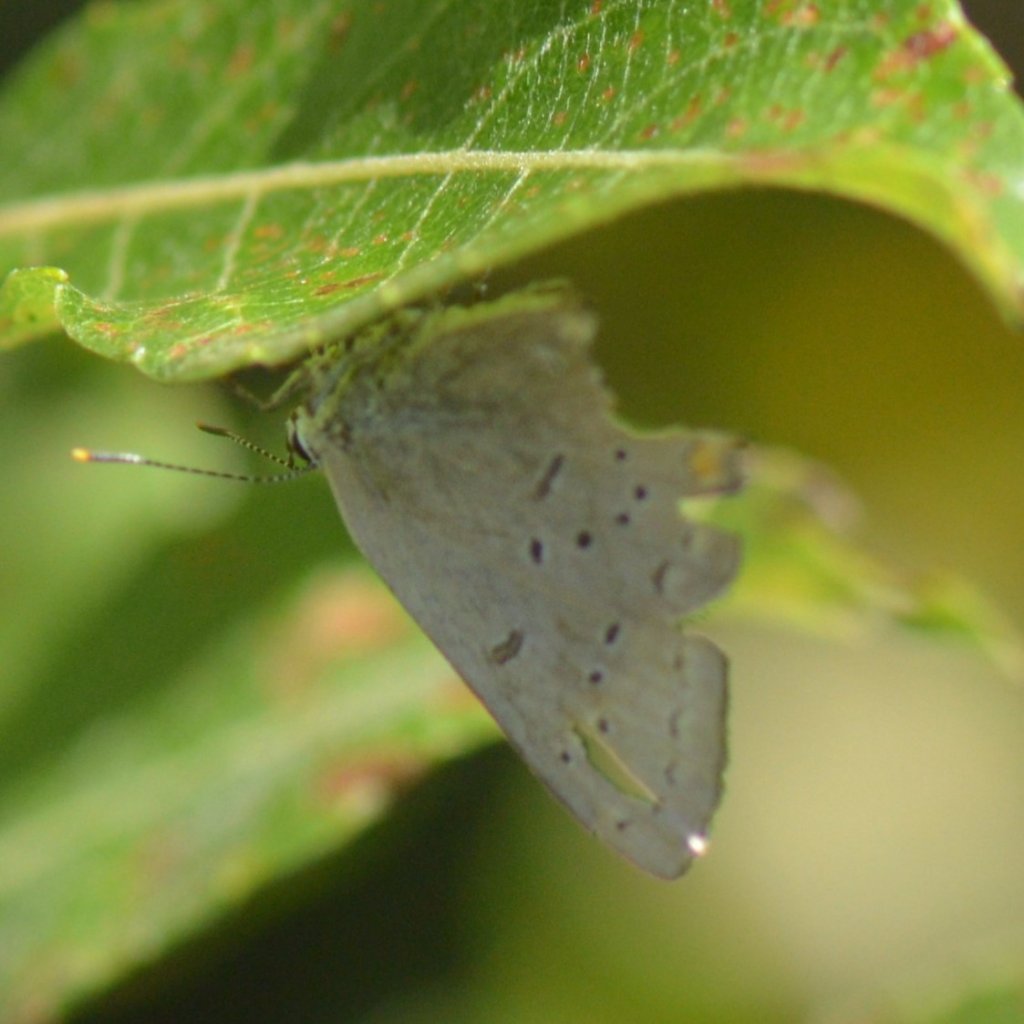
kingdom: Animalia
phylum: Arthropoda
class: Insecta
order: Lepidoptera
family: Lycaenidae
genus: Strymon
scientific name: Strymon acadica
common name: Acadian Hairstreak
